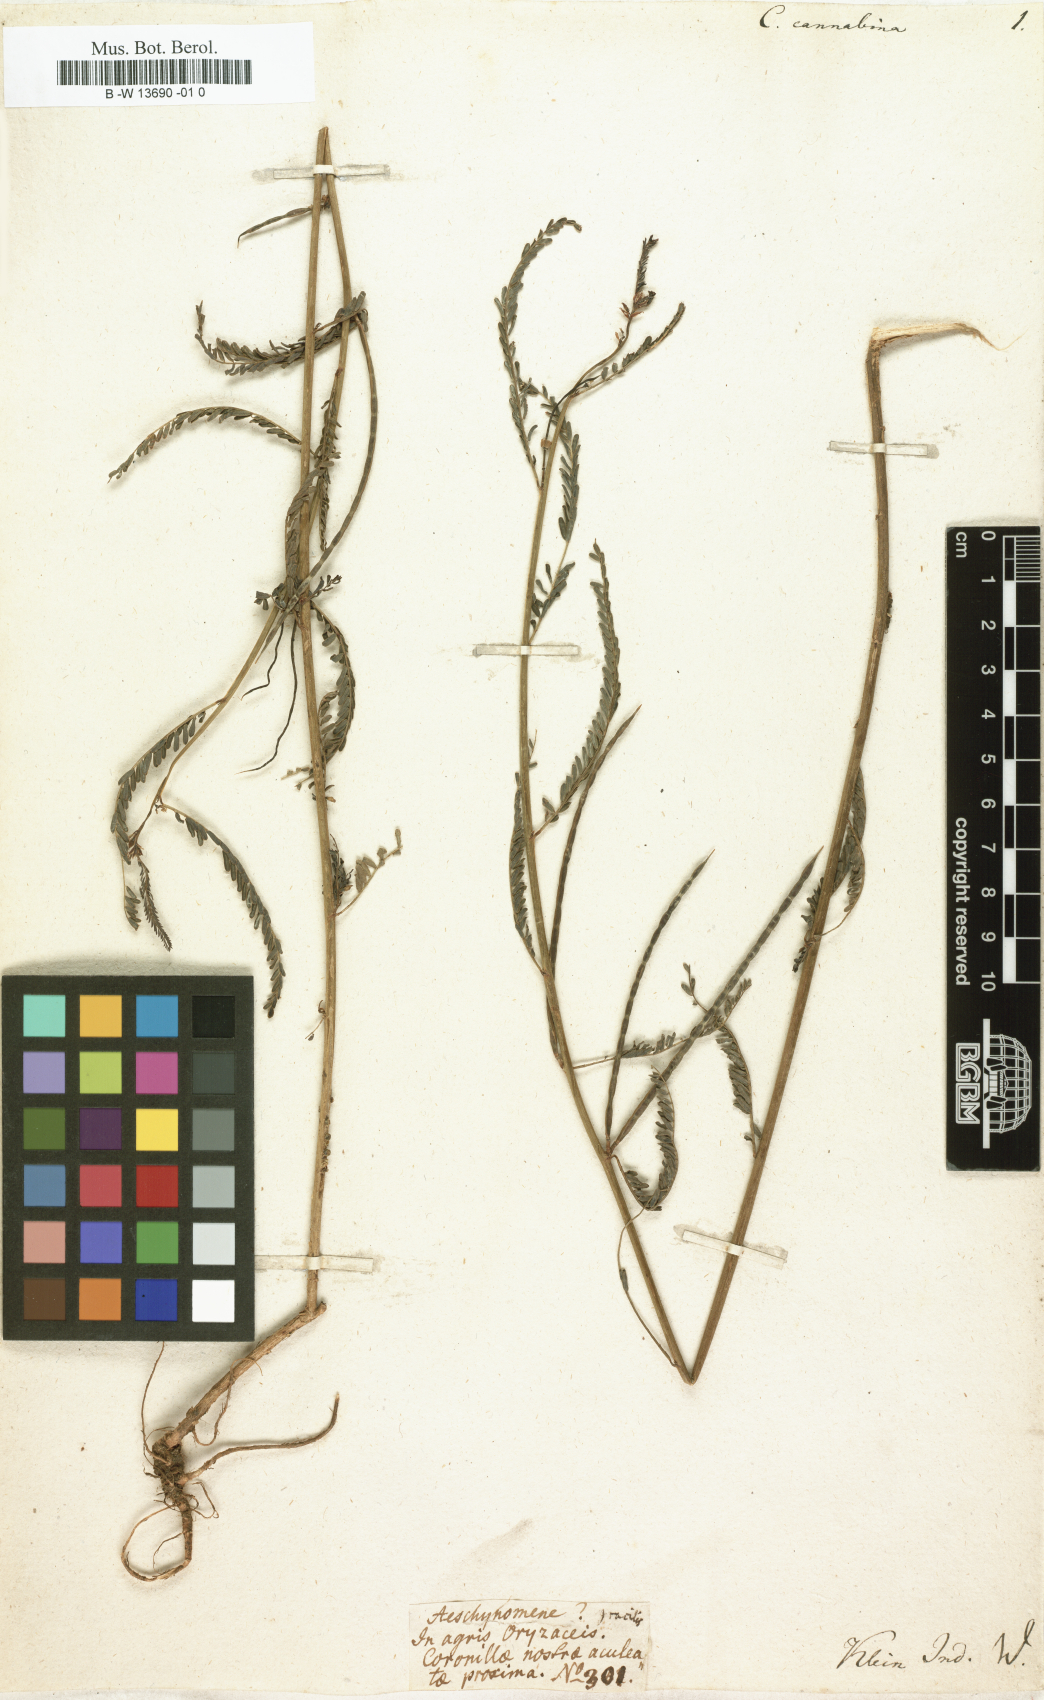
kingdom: Plantae
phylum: Tracheophyta
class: Magnoliopsida
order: Fabales
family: Fabaceae
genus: Sesbania
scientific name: Sesbania cannabina
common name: Canicha
